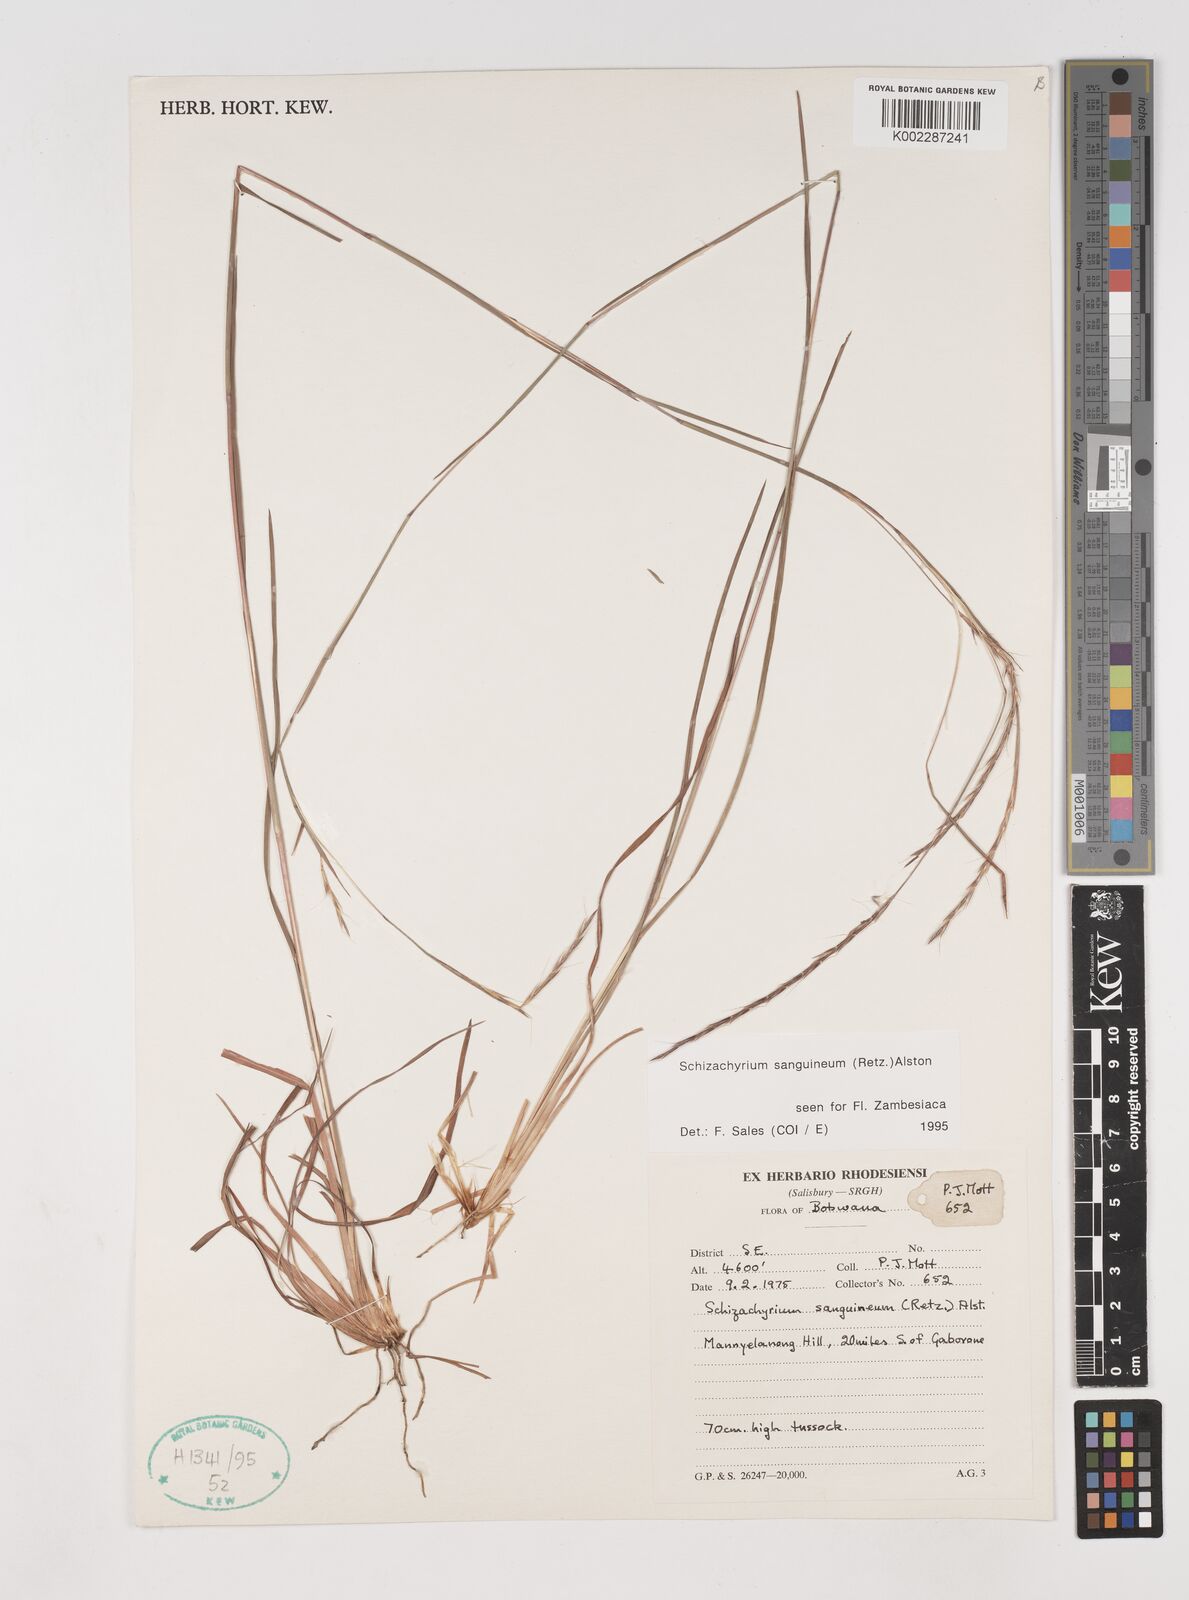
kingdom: Plantae
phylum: Tracheophyta
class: Liliopsida
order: Poales
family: Poaceae
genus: Schizachyrium
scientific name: Schizachyrium sanguineum
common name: Crimson bluestem
